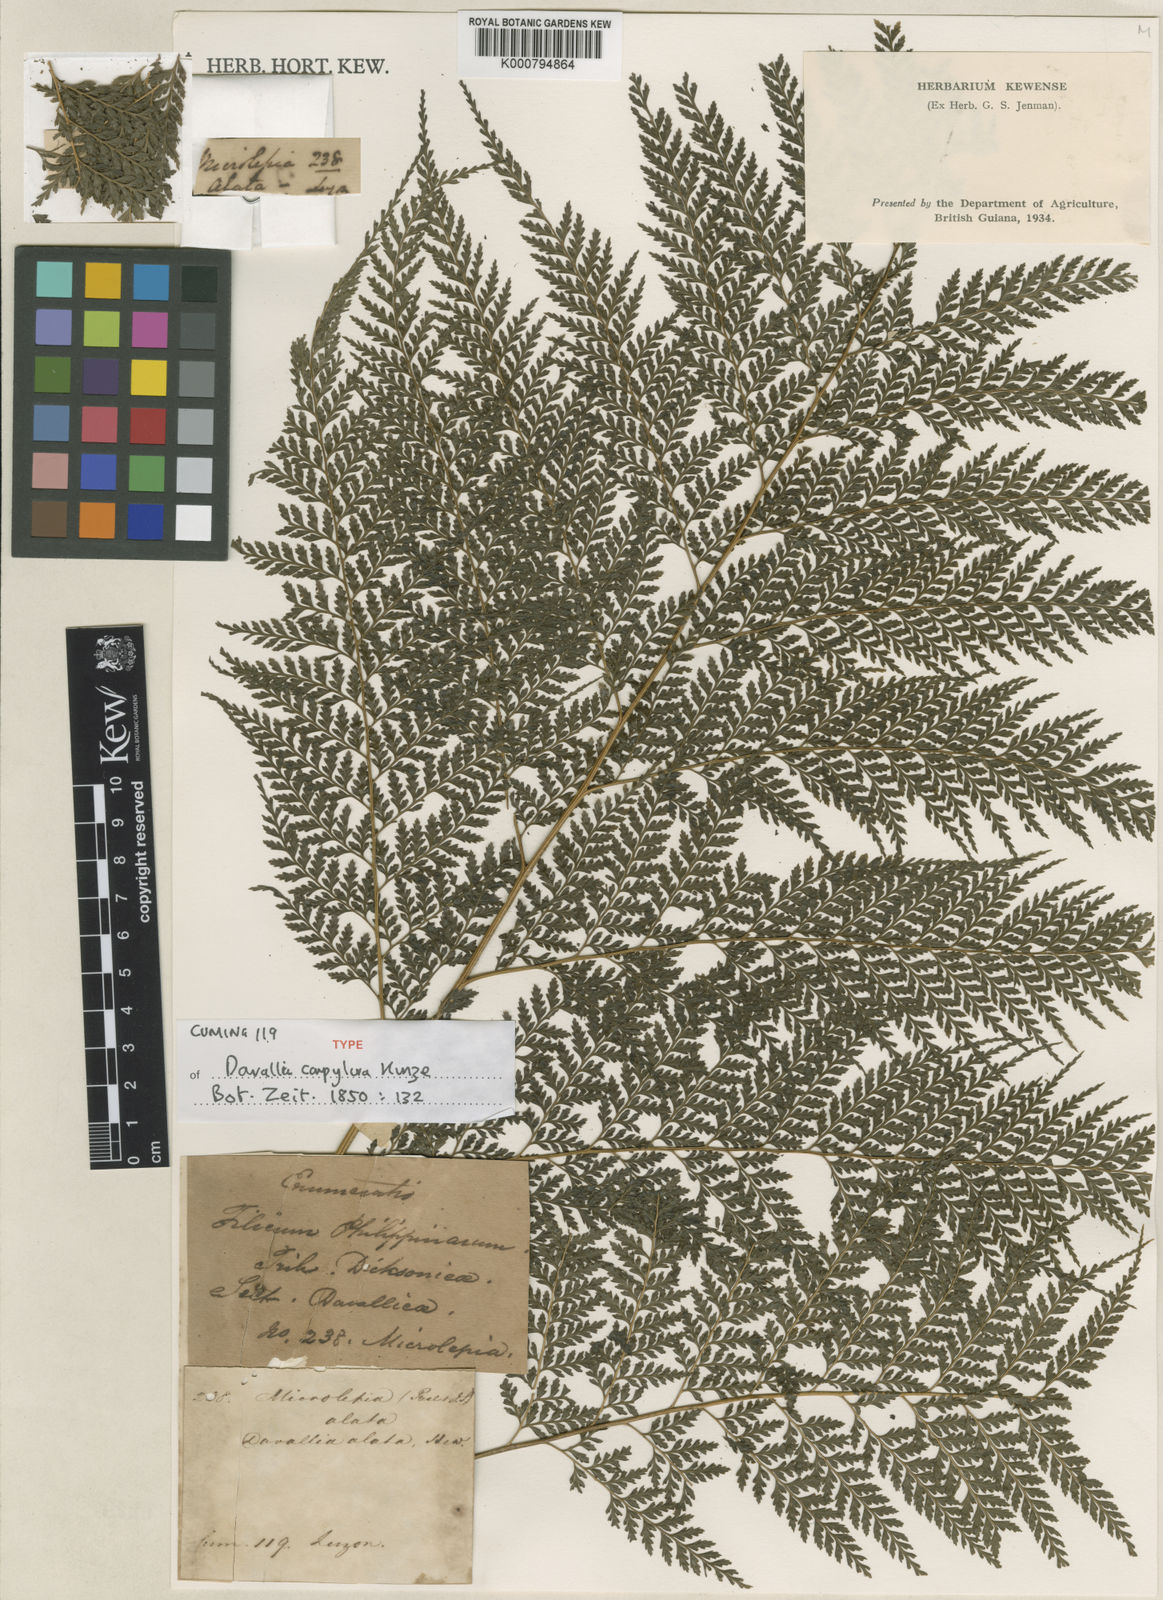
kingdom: Plantae
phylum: Tracheophyta
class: Polypodiopsida
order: Polypodiales
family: Saccolomataceae
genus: Orthiopteris
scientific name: Orthiopteris campylura
